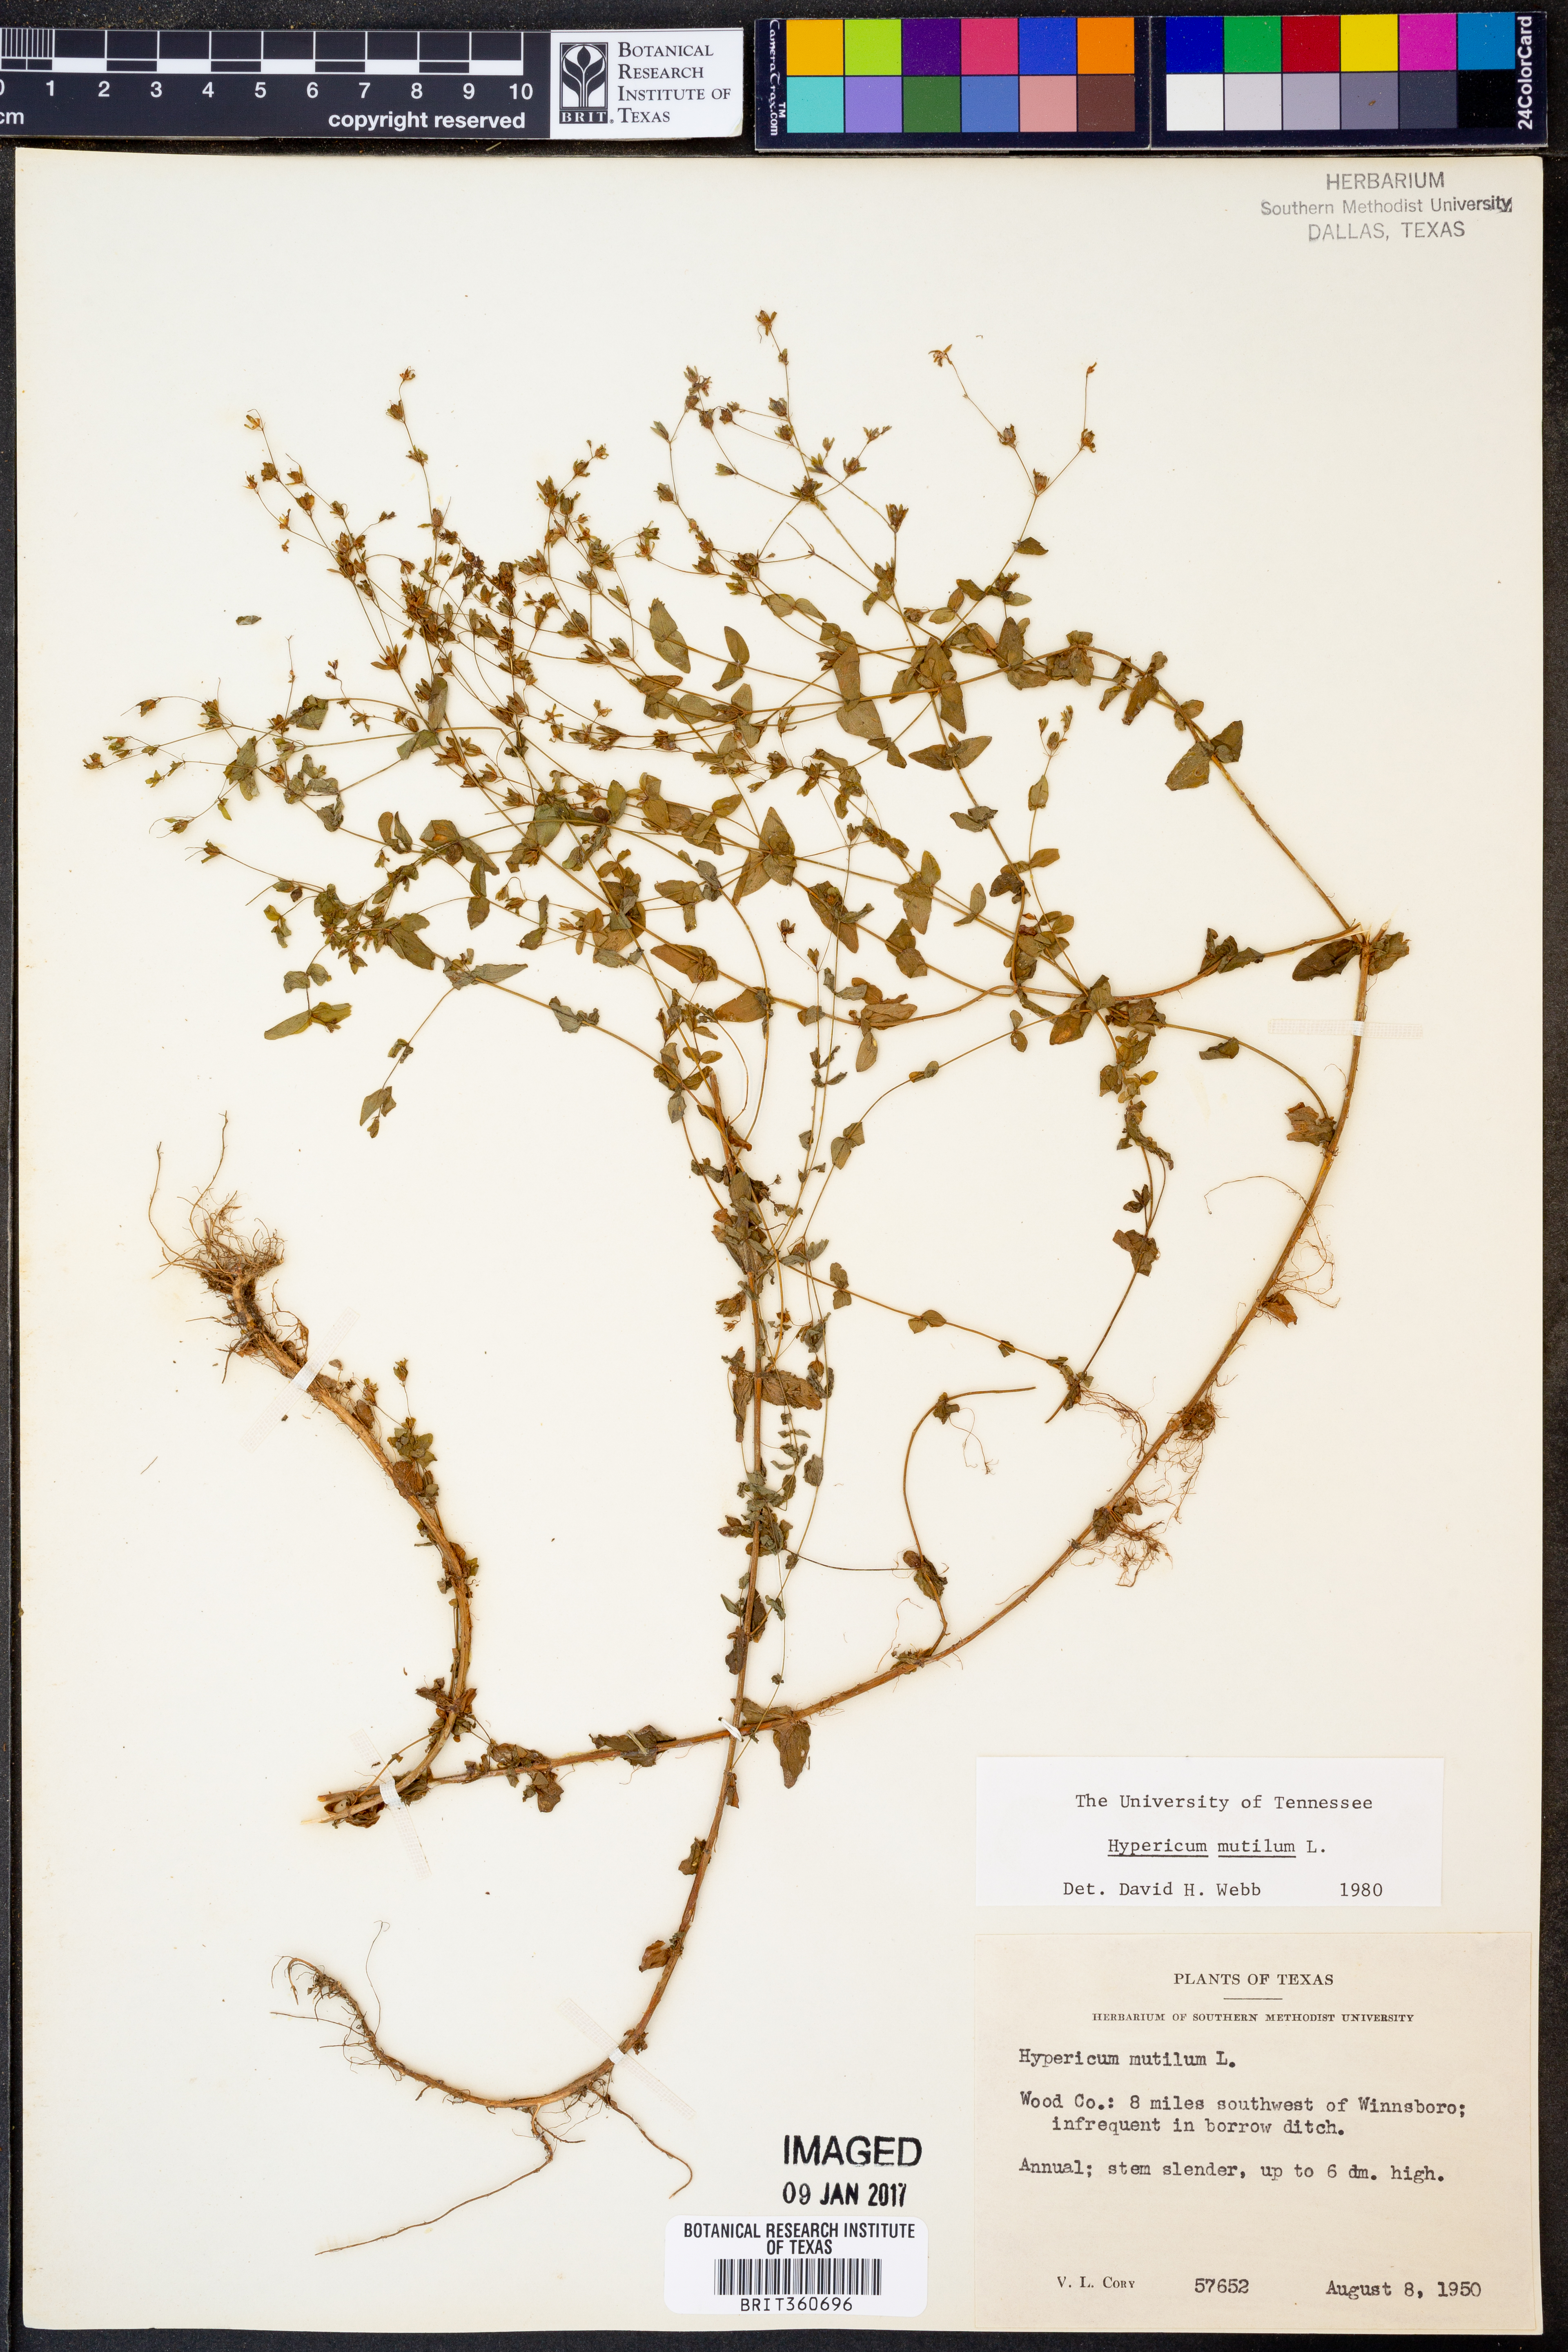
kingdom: Plantae
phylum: Tracheophyta
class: Magnoliopsida
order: Malpighiales
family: Hypericaceae
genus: Hypericum
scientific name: Hypericum mutilum
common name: Dwarf st. john's-wort
